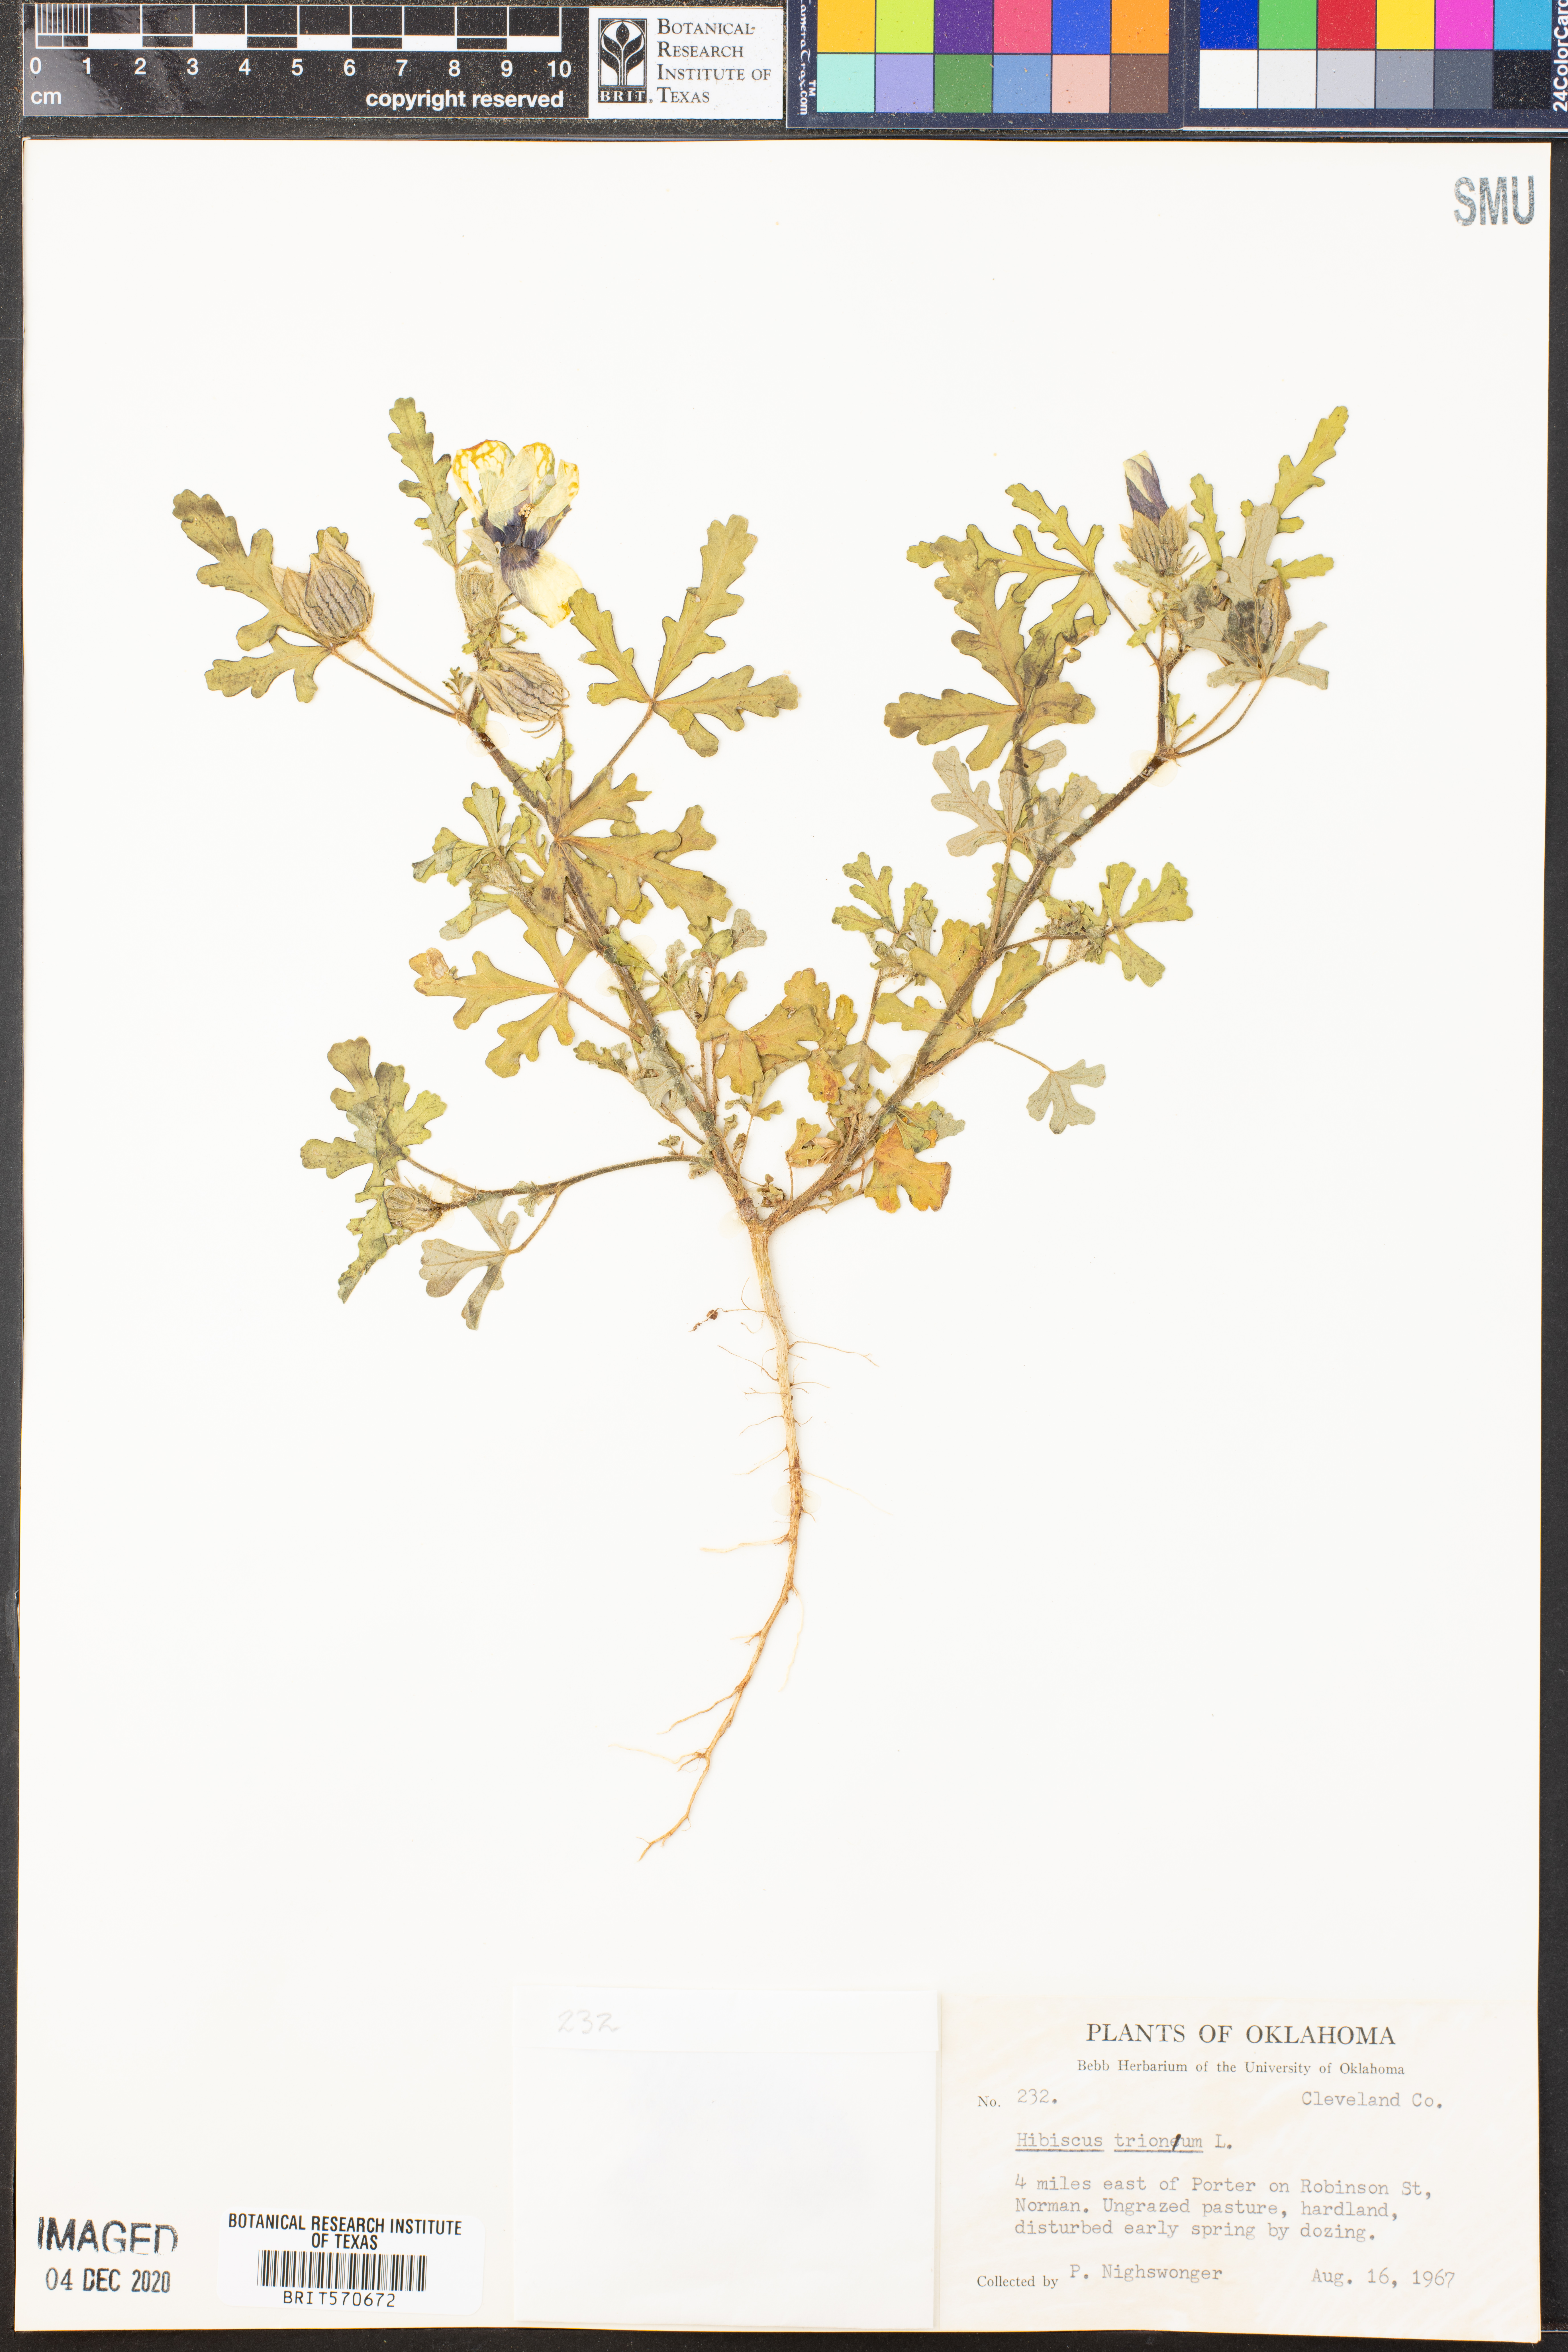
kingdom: Plantae
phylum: Tracheophyta
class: Magnoliopsida
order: Malvales
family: Malvaceae
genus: Hibiscus
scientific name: Hibiscus trionum
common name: Bladder ketmia
